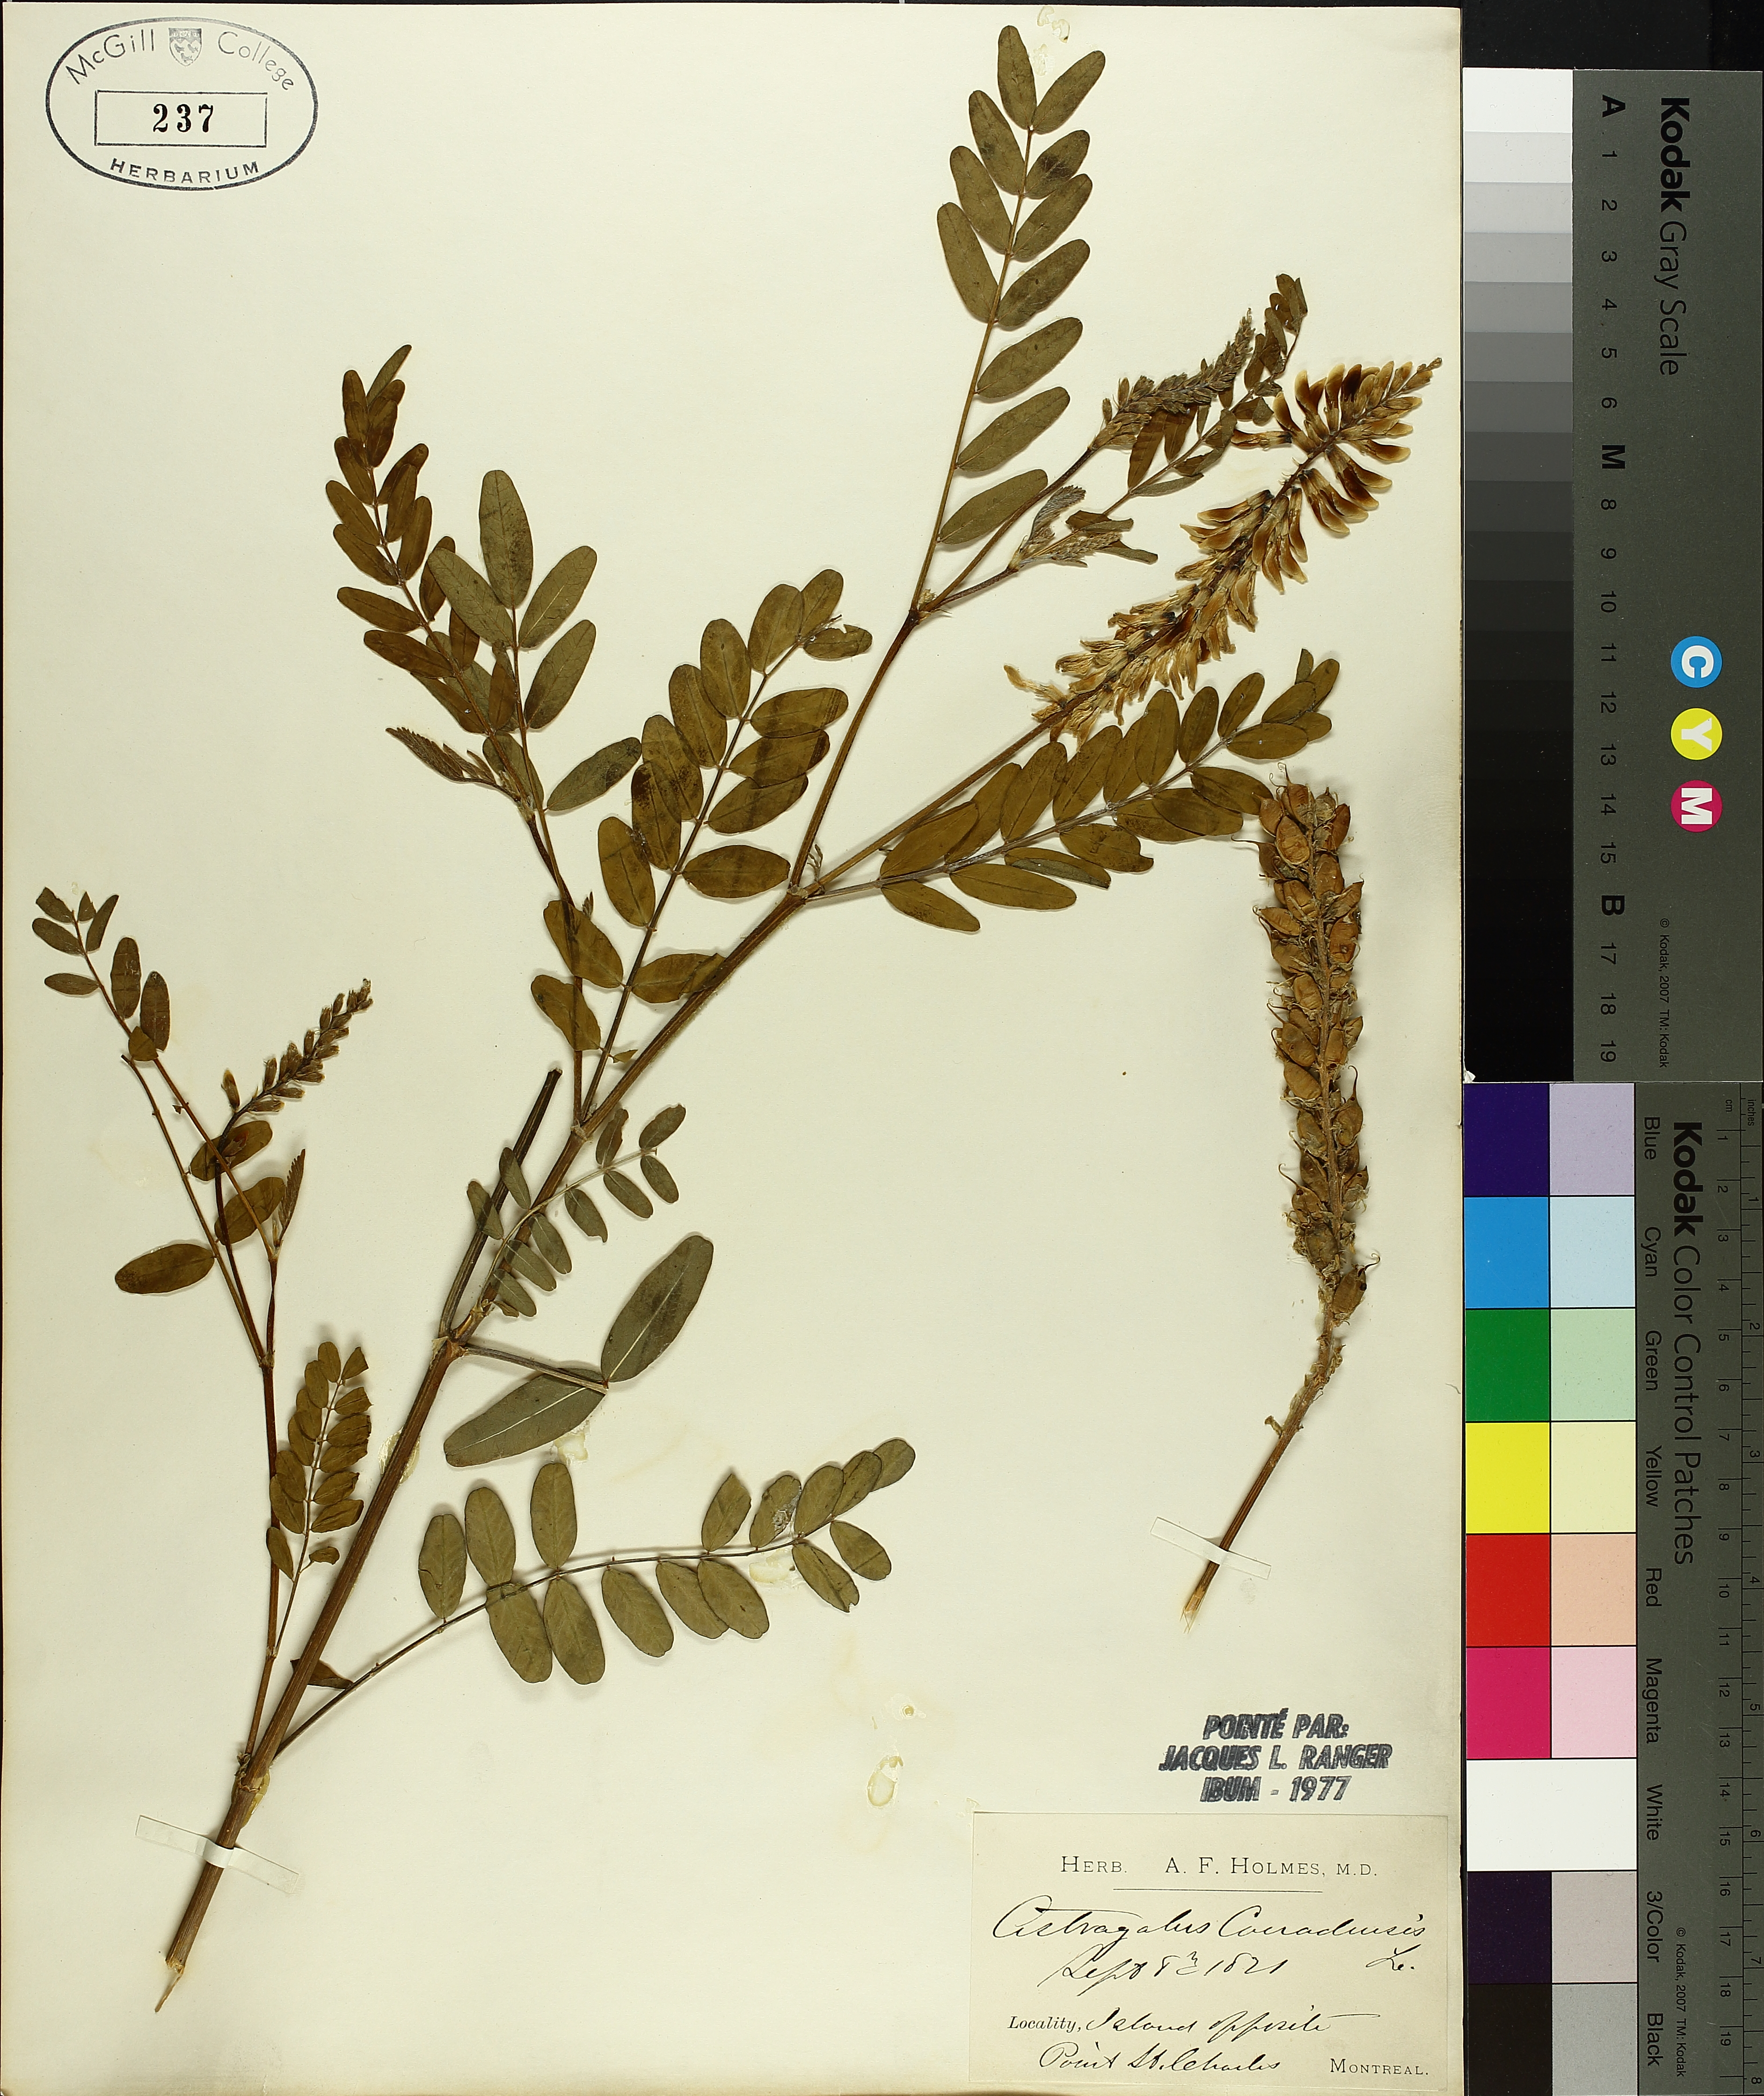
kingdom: Plantae
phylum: Tracheophyta
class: Magnoliopsida
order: Fabales
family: Fabaceae
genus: Astragalus
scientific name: Astragalus canadensis
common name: Canada milk-vetch
